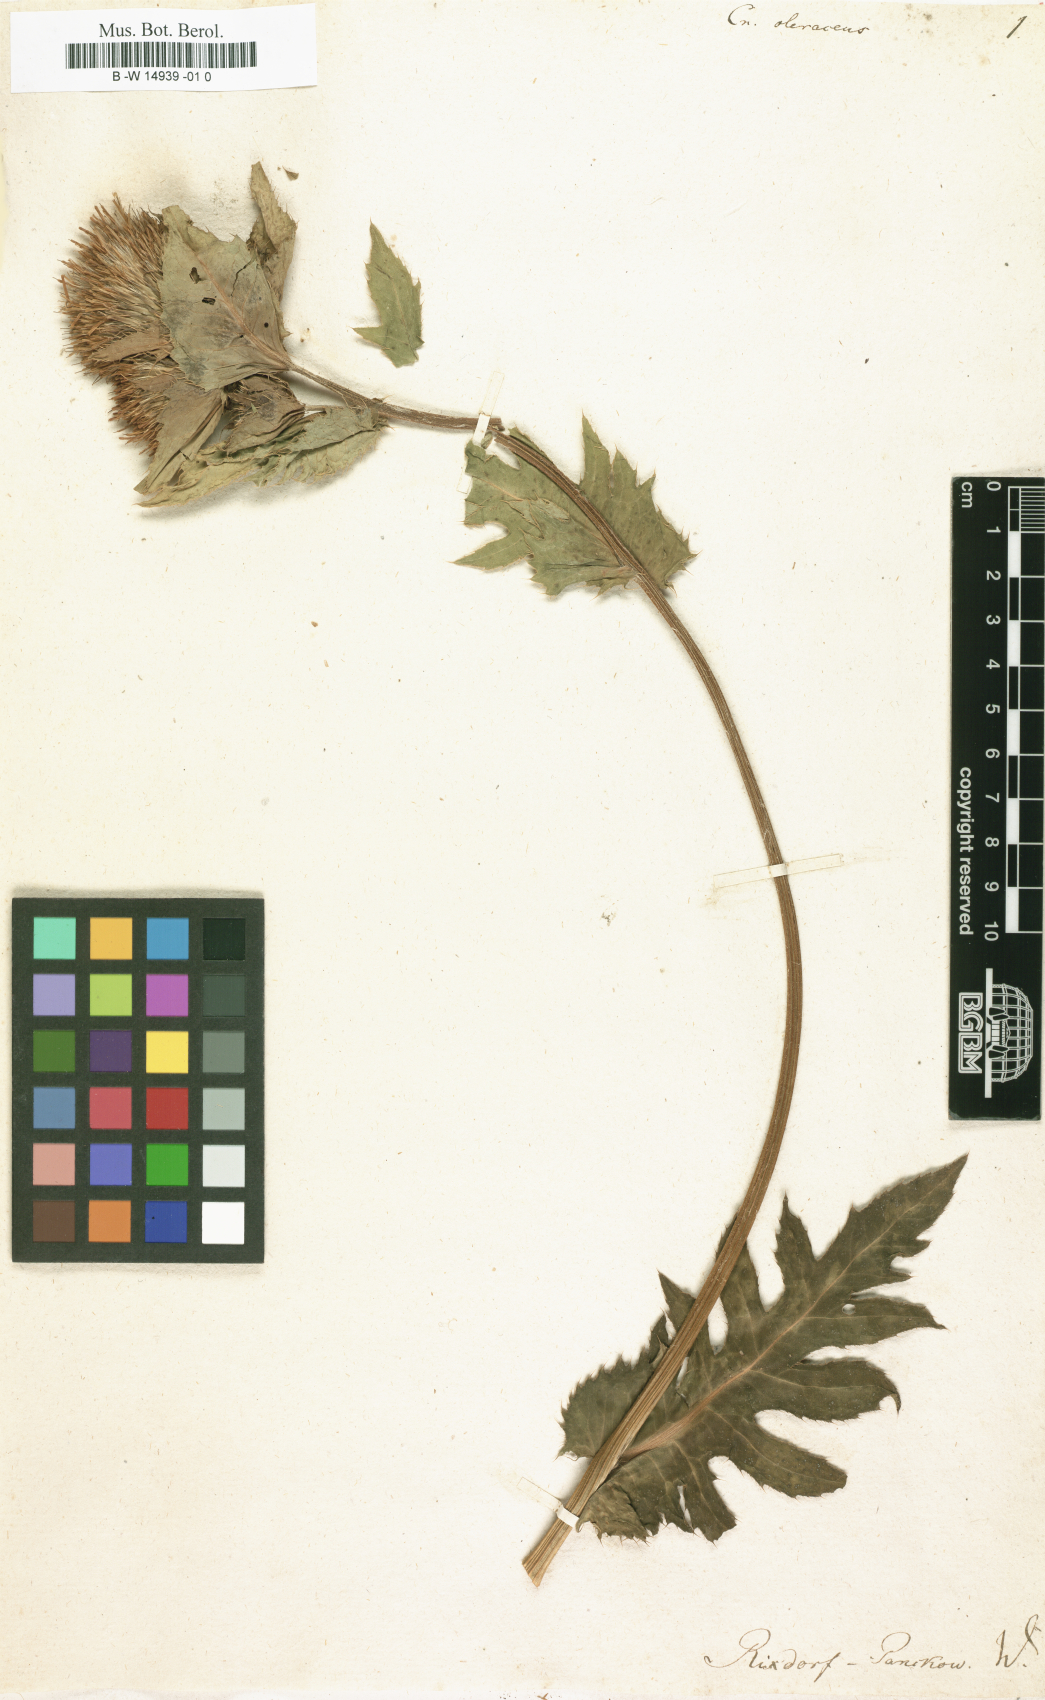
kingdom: Plantae
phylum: Tracheophyta
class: Magnoliopsida
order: Asterales
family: Asteraceae
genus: Cirsium
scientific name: Cirsium oleraceum
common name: Cabbage thistle
